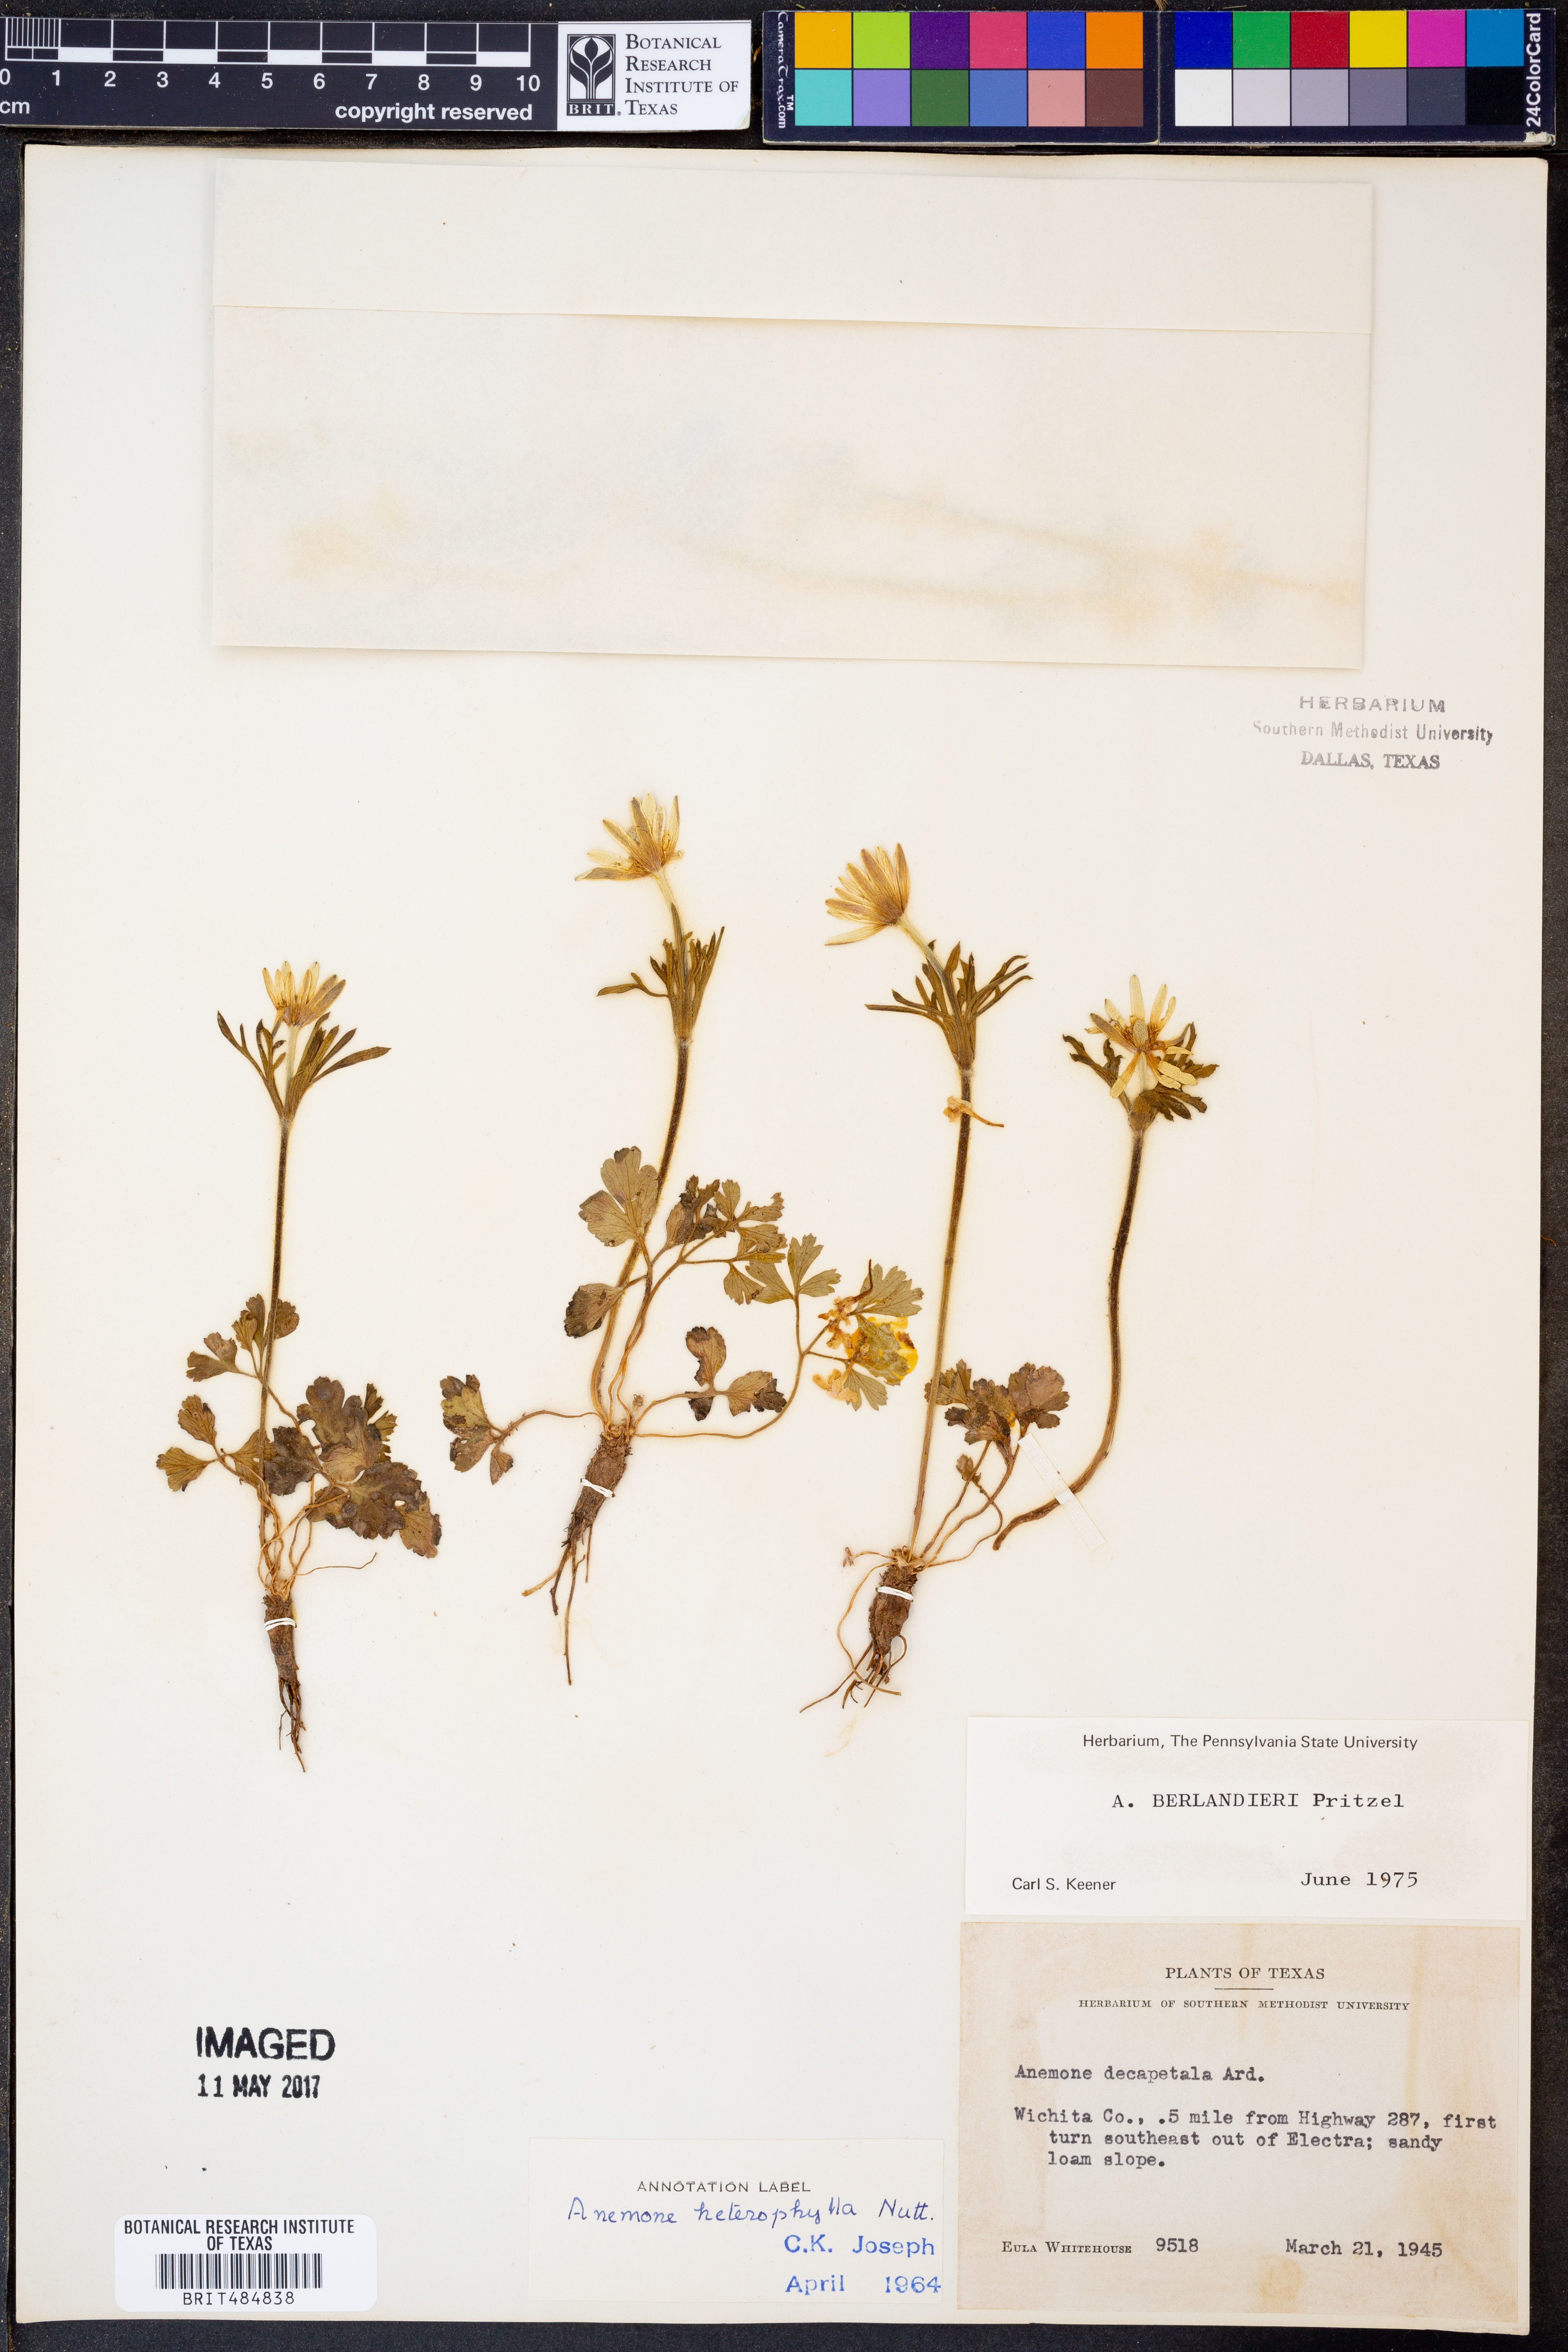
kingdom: Plantae
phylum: Tracheophyta
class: Magnoliopsida
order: Ranunculales
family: Ranunculaceae
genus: Anemone
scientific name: Anemone decapetala
